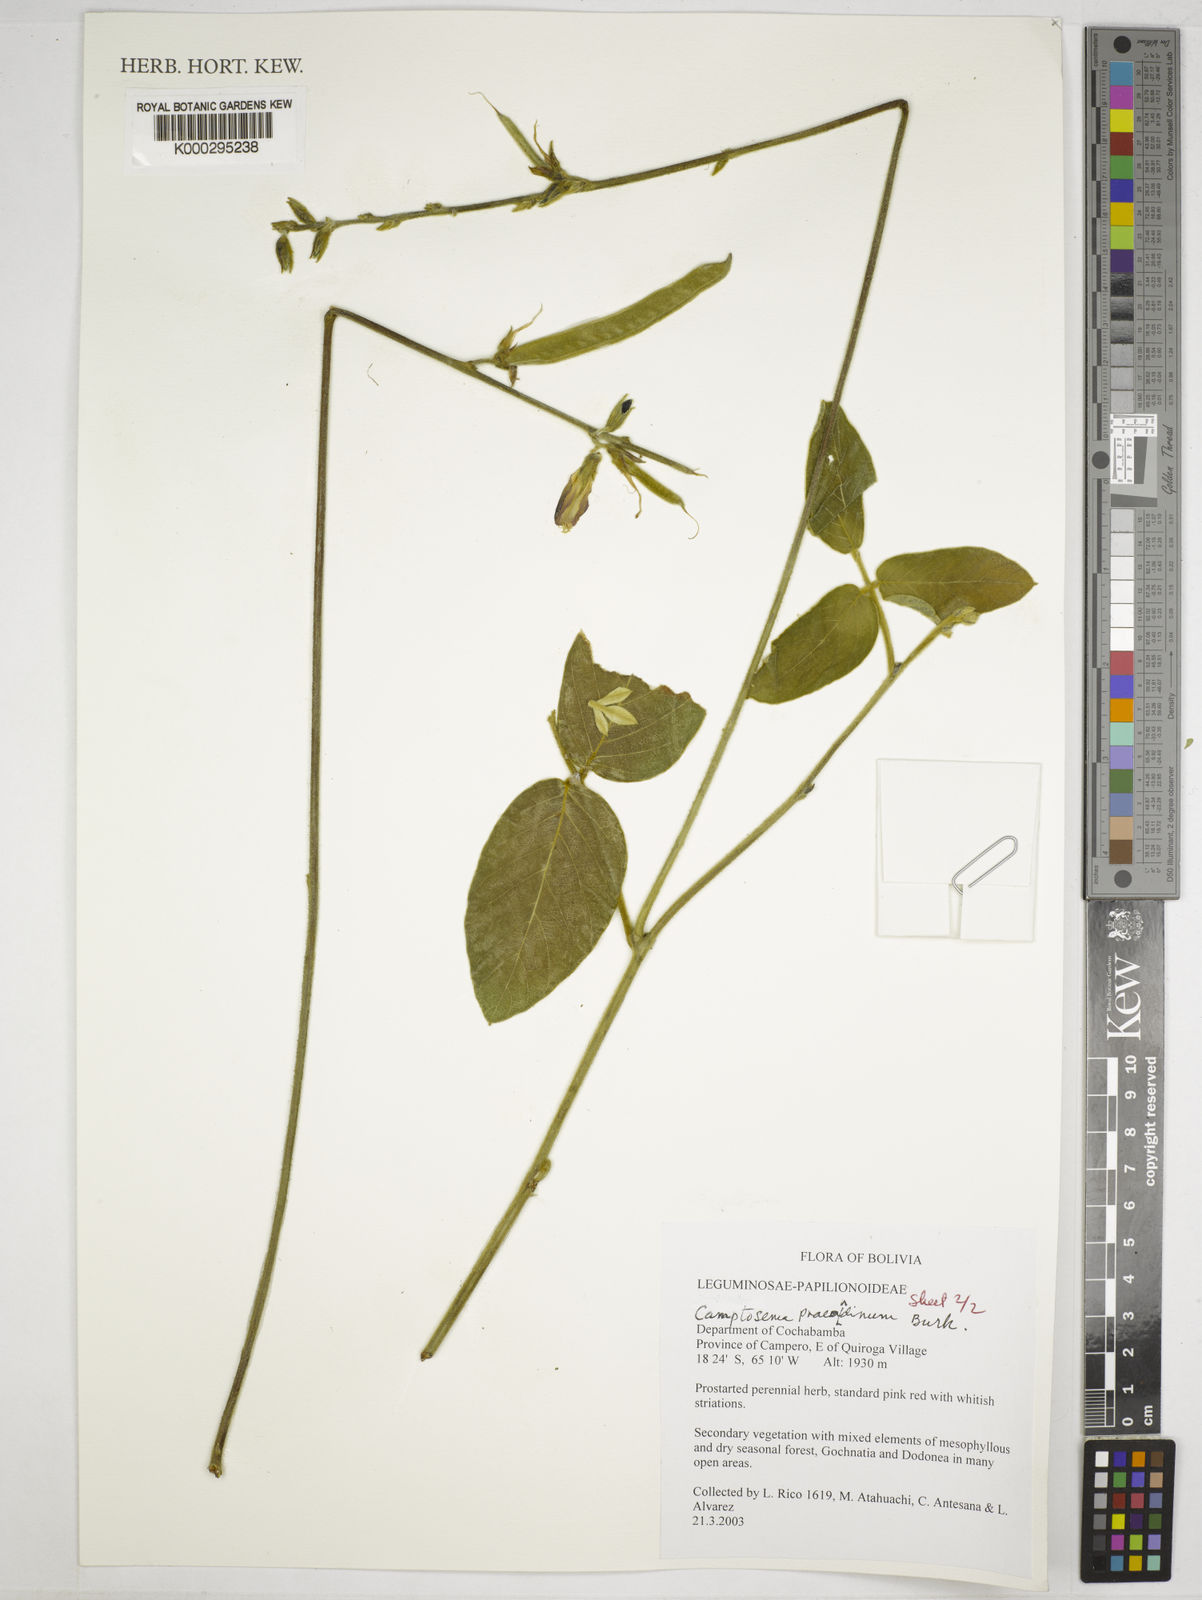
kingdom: Plantae
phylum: Tracheophyta
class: Magnoliopsida
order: Fabales
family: Fabaceae
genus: Camptosema
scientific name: Camptosema
